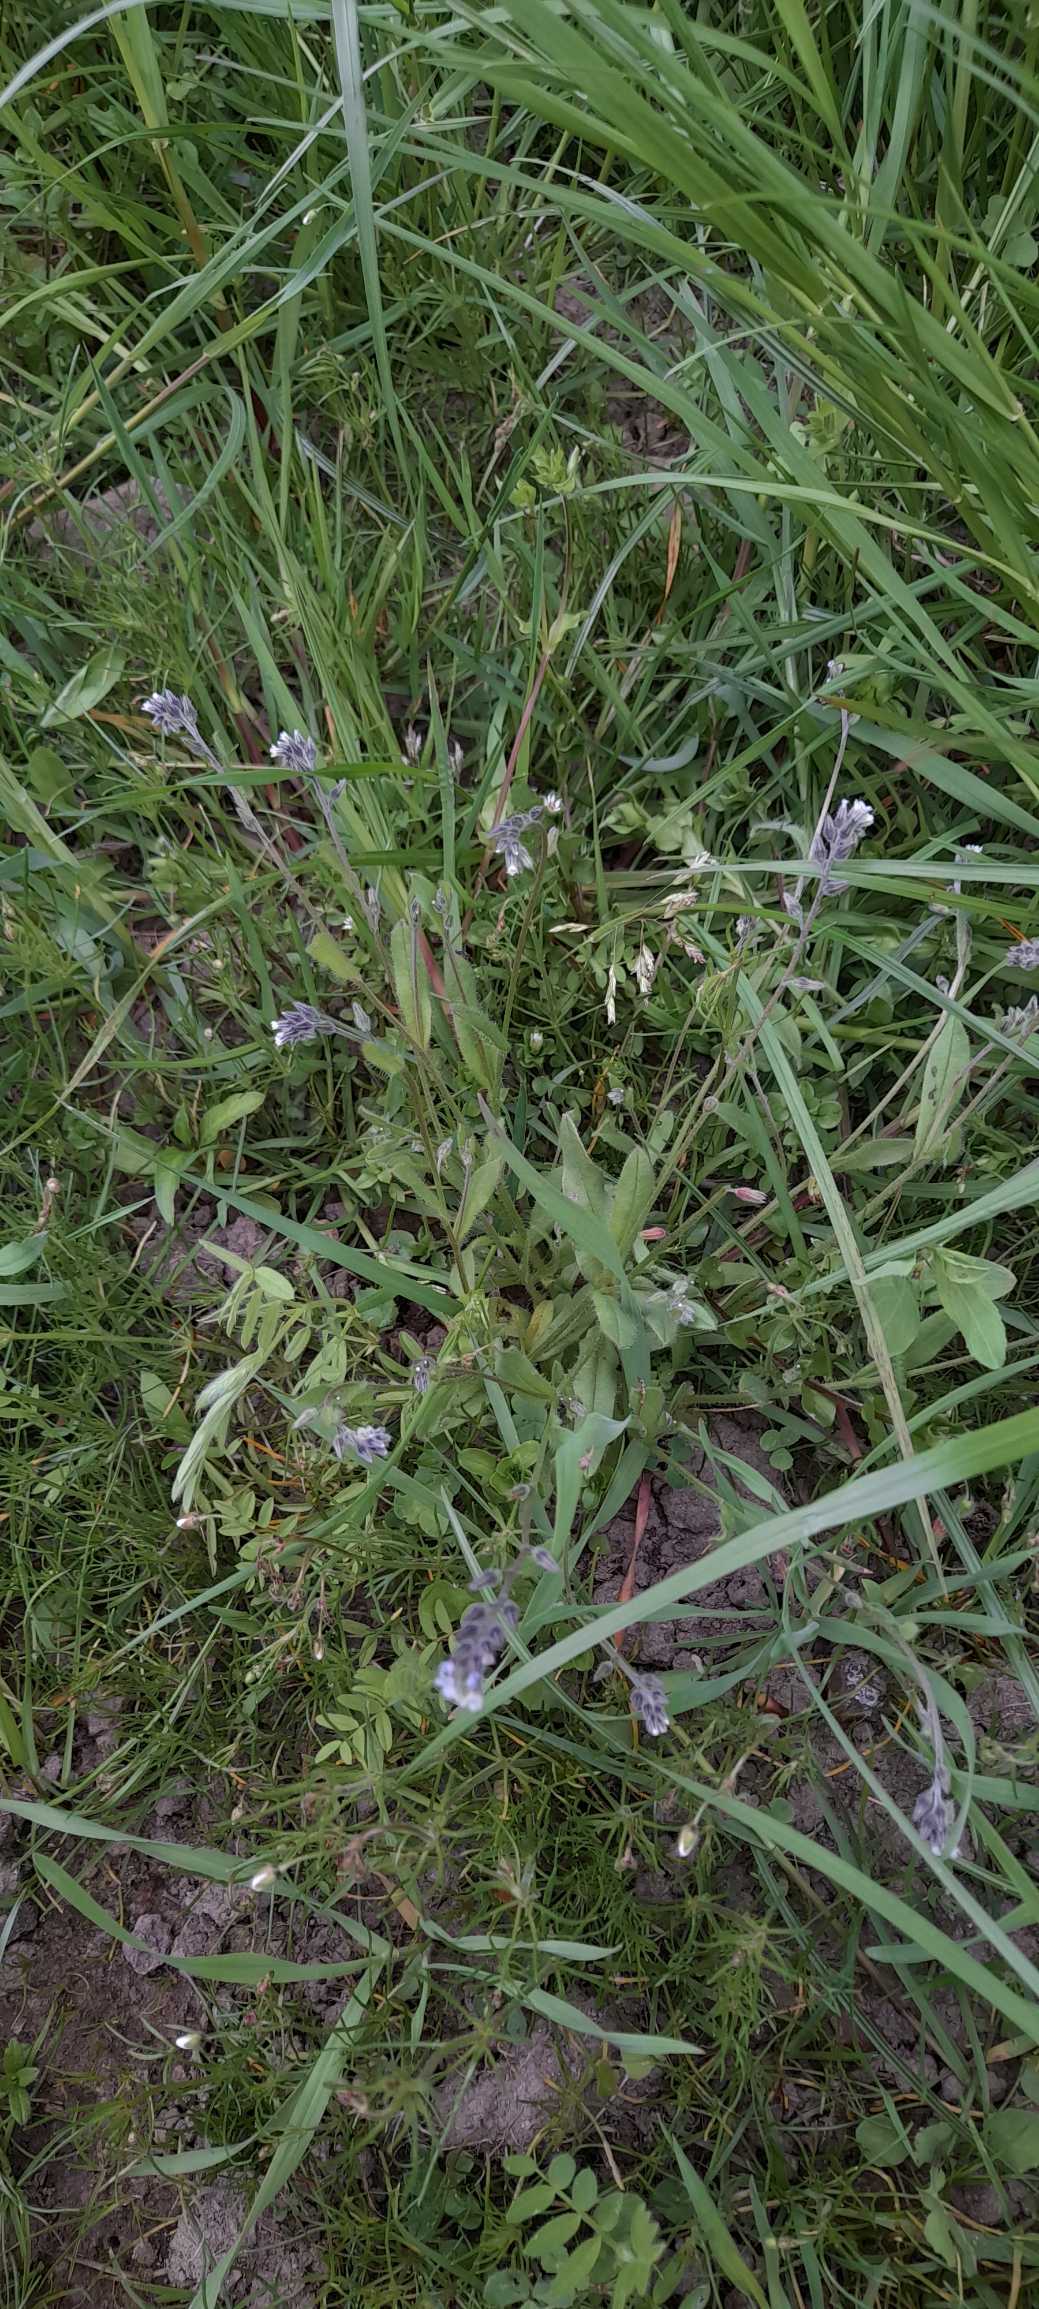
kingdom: Plantae
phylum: Tracheophyta
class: Magnoliopsida
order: Boraginales
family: Boraginaceae
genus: Myosotis
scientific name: Myosotis discolor
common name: Forskelligfarvet forglemmigej
